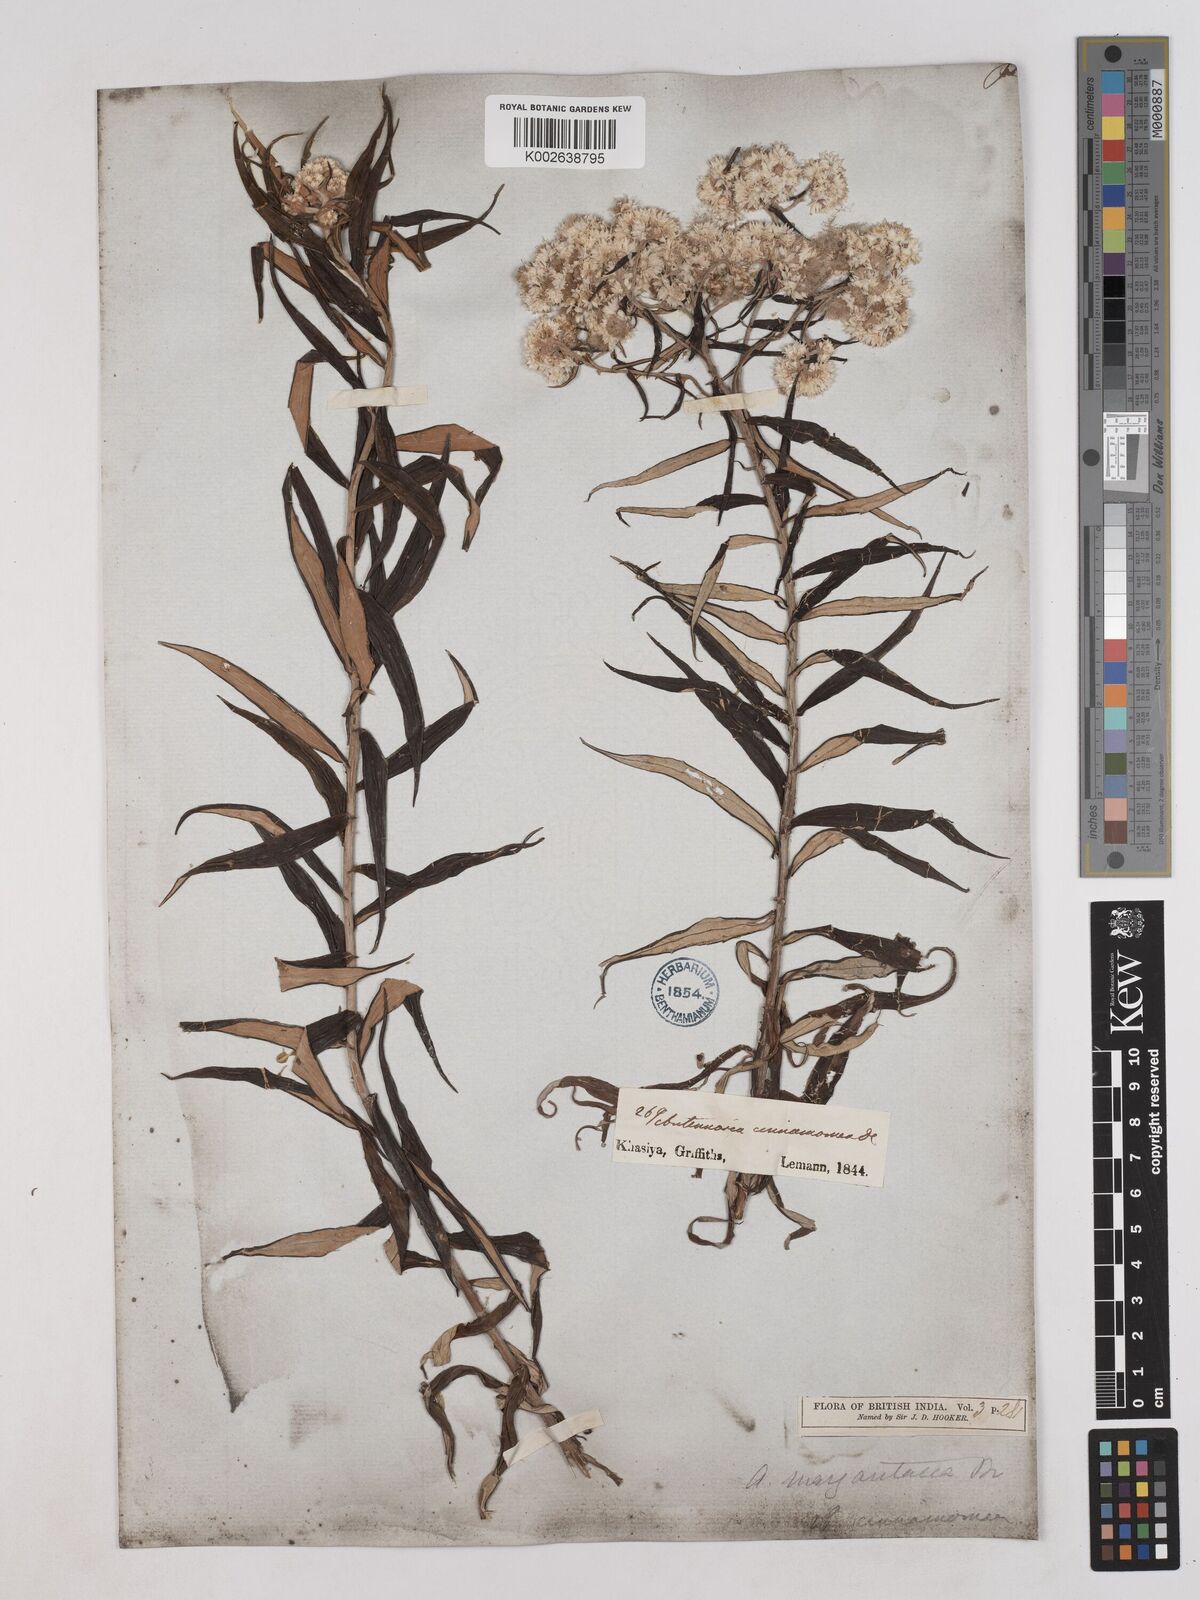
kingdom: Plantae
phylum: Tracheophyta
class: Magnoliopsida
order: Asterales
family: Asteraceae
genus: Anaphalis
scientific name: Anaphalis marcescens
